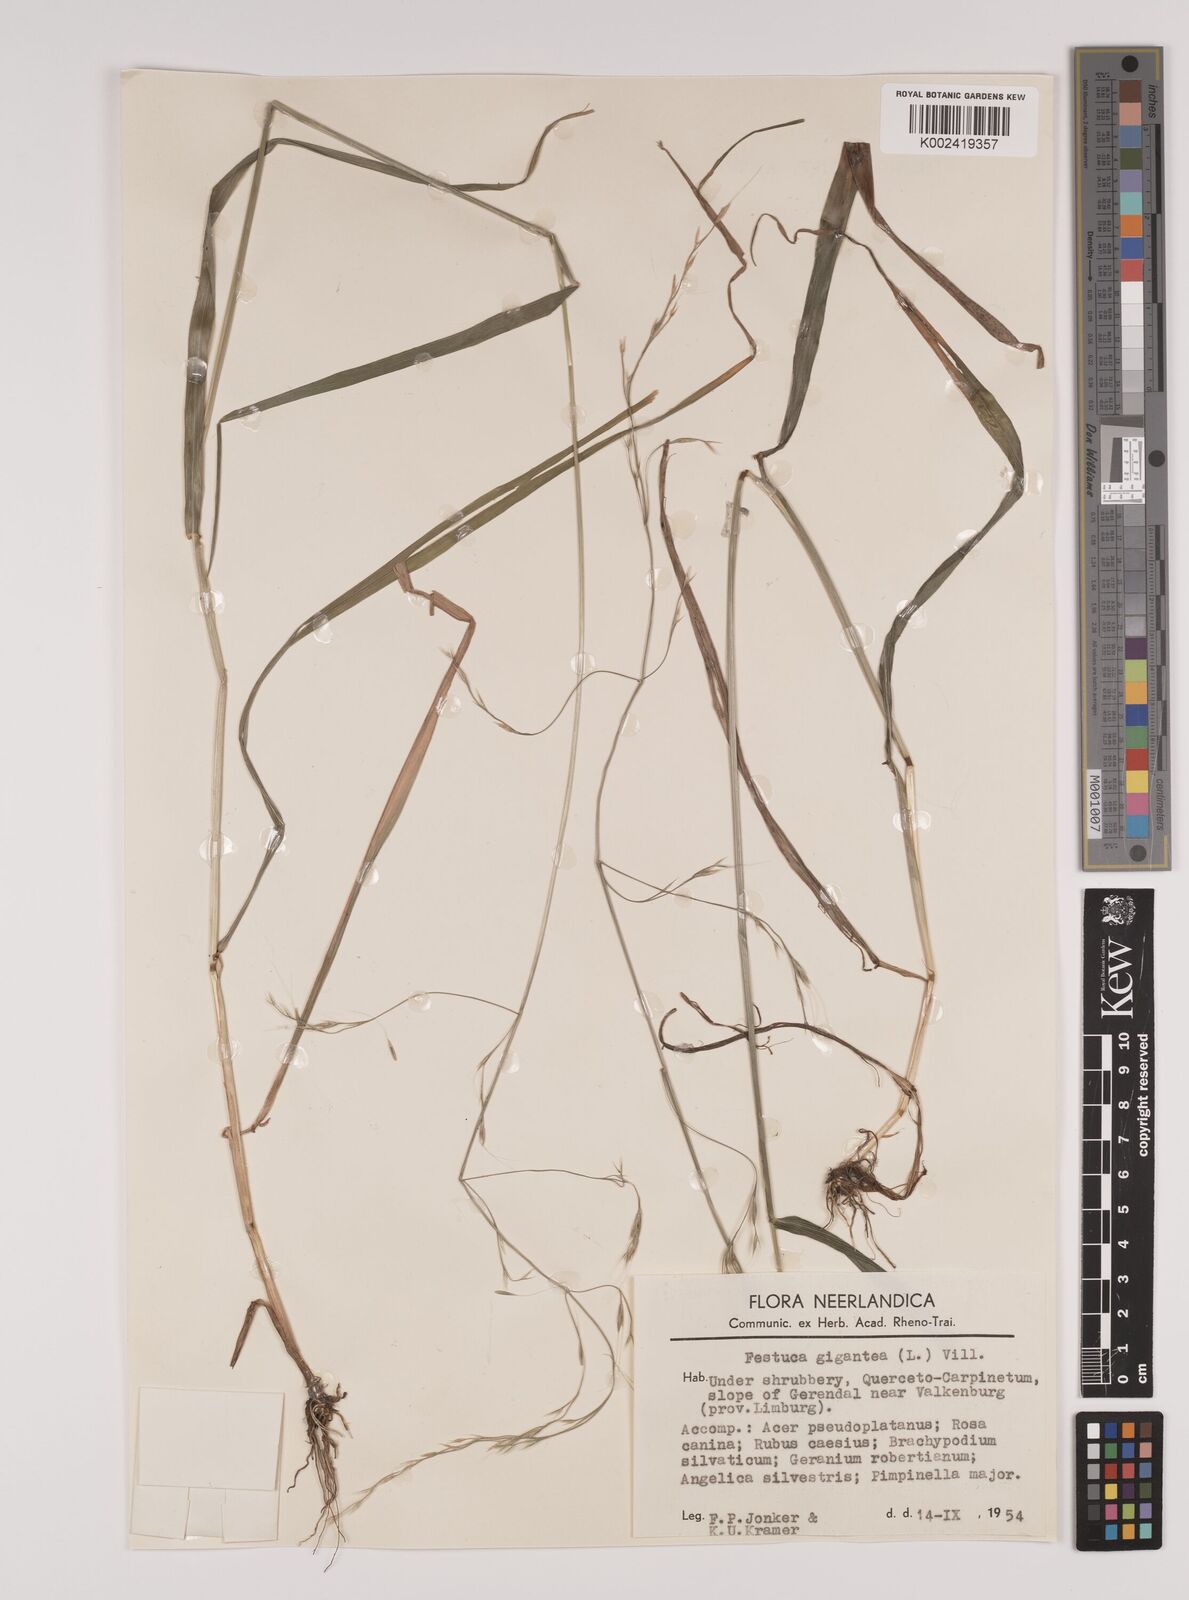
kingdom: Plantae
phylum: Tracheophyta
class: Liliopsida
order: Poales
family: Poaceae
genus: Lolium
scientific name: Lolium giganteum
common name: Giant fescue
